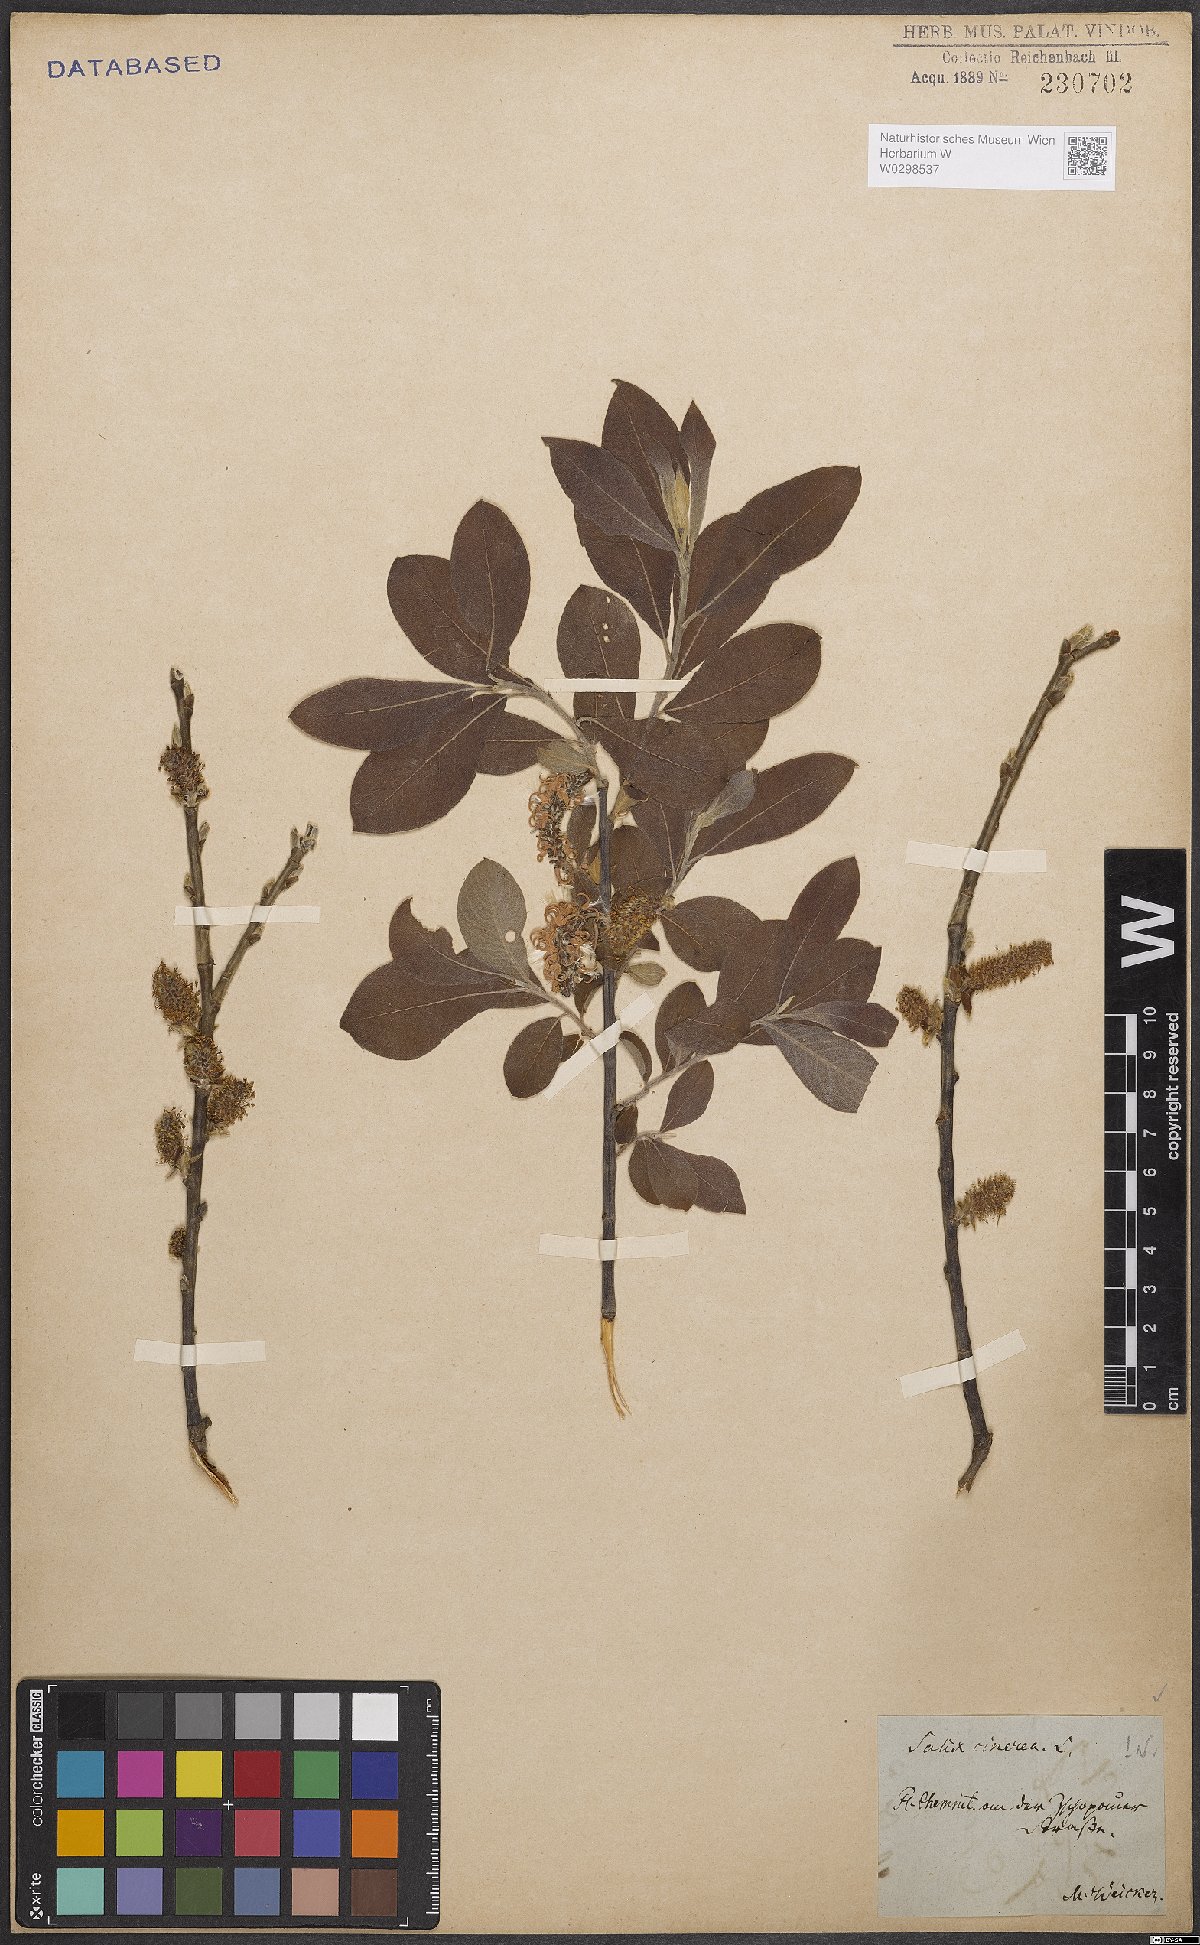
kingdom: Plantae
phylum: Tracheophyta
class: Magnoliopsida
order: Malpighiales
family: Salicaceae
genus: Salix
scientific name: Salix cinerea
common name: Common sallow
